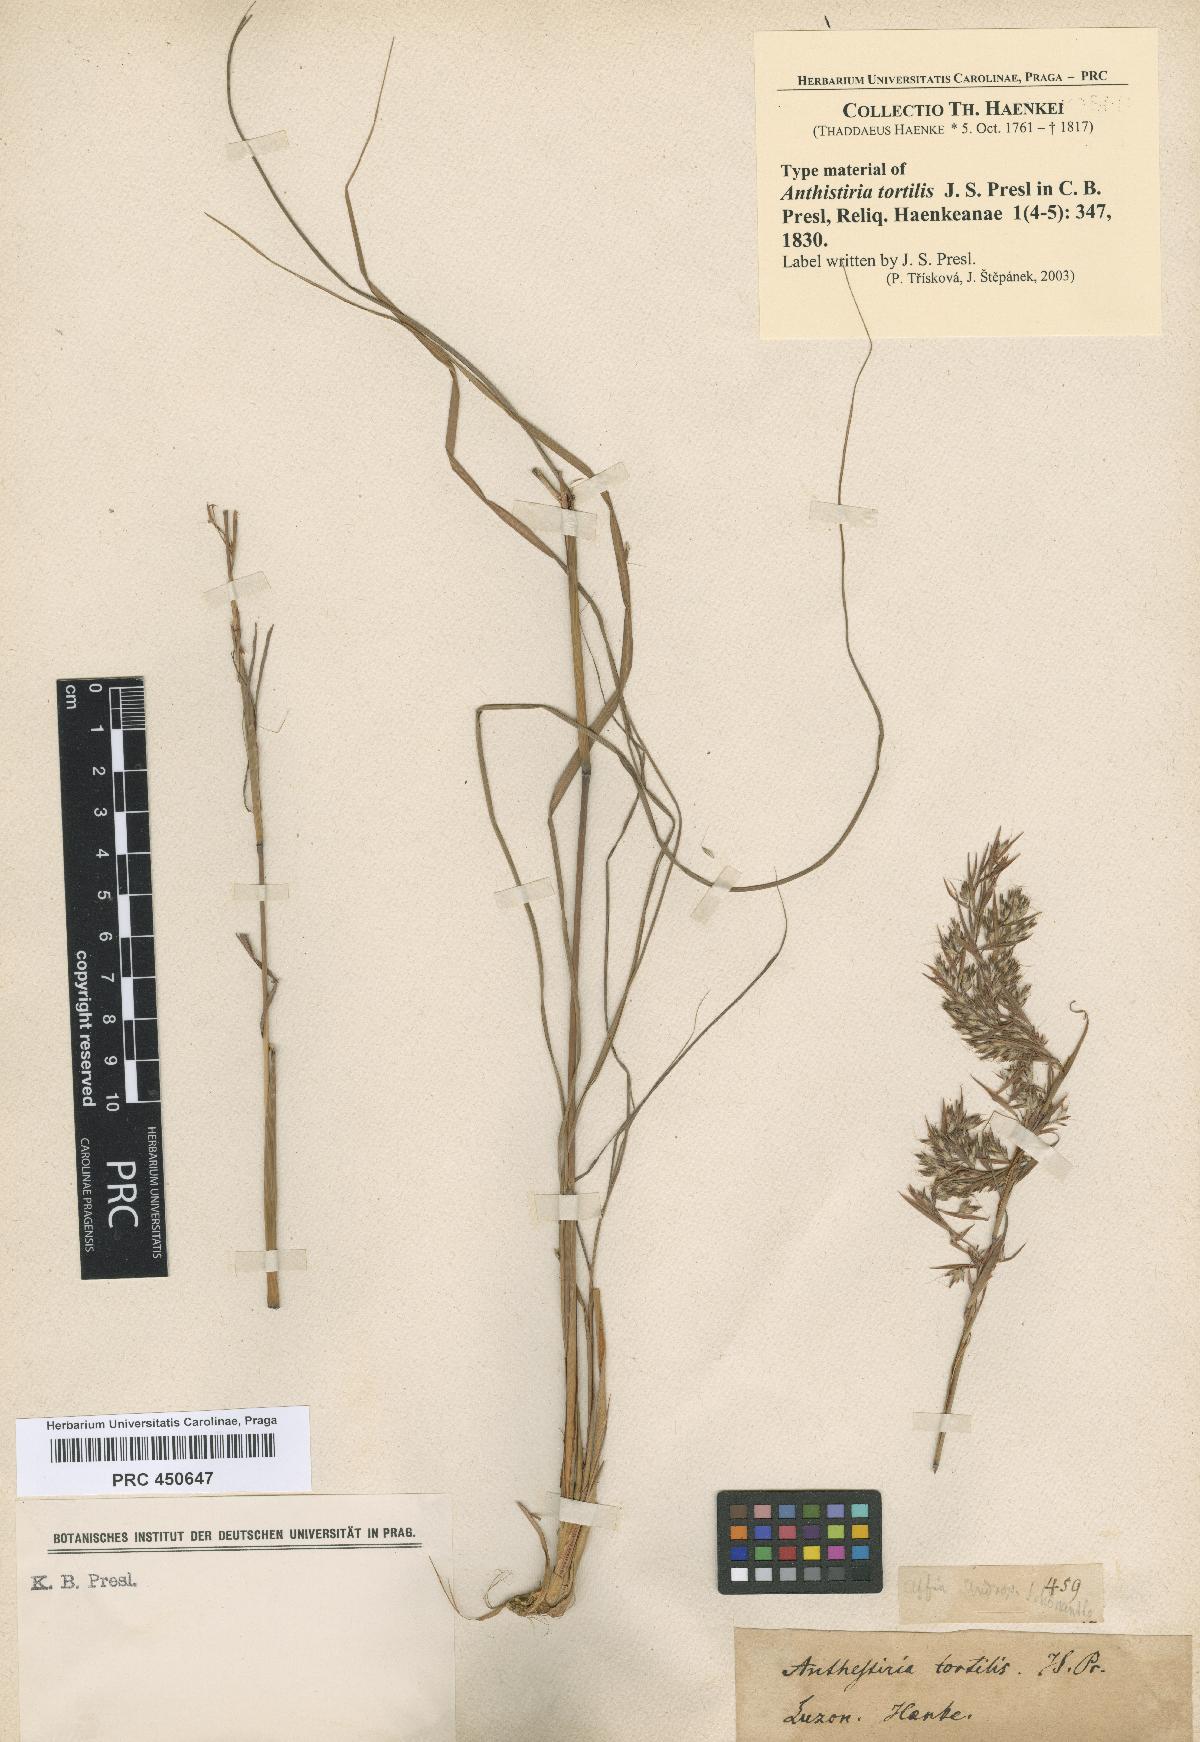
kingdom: Plantae
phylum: Tracheophyta
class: Liliopsida
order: Poales
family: Poaceae
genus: Cymbopogon
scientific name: Cymbopogon tortilis
